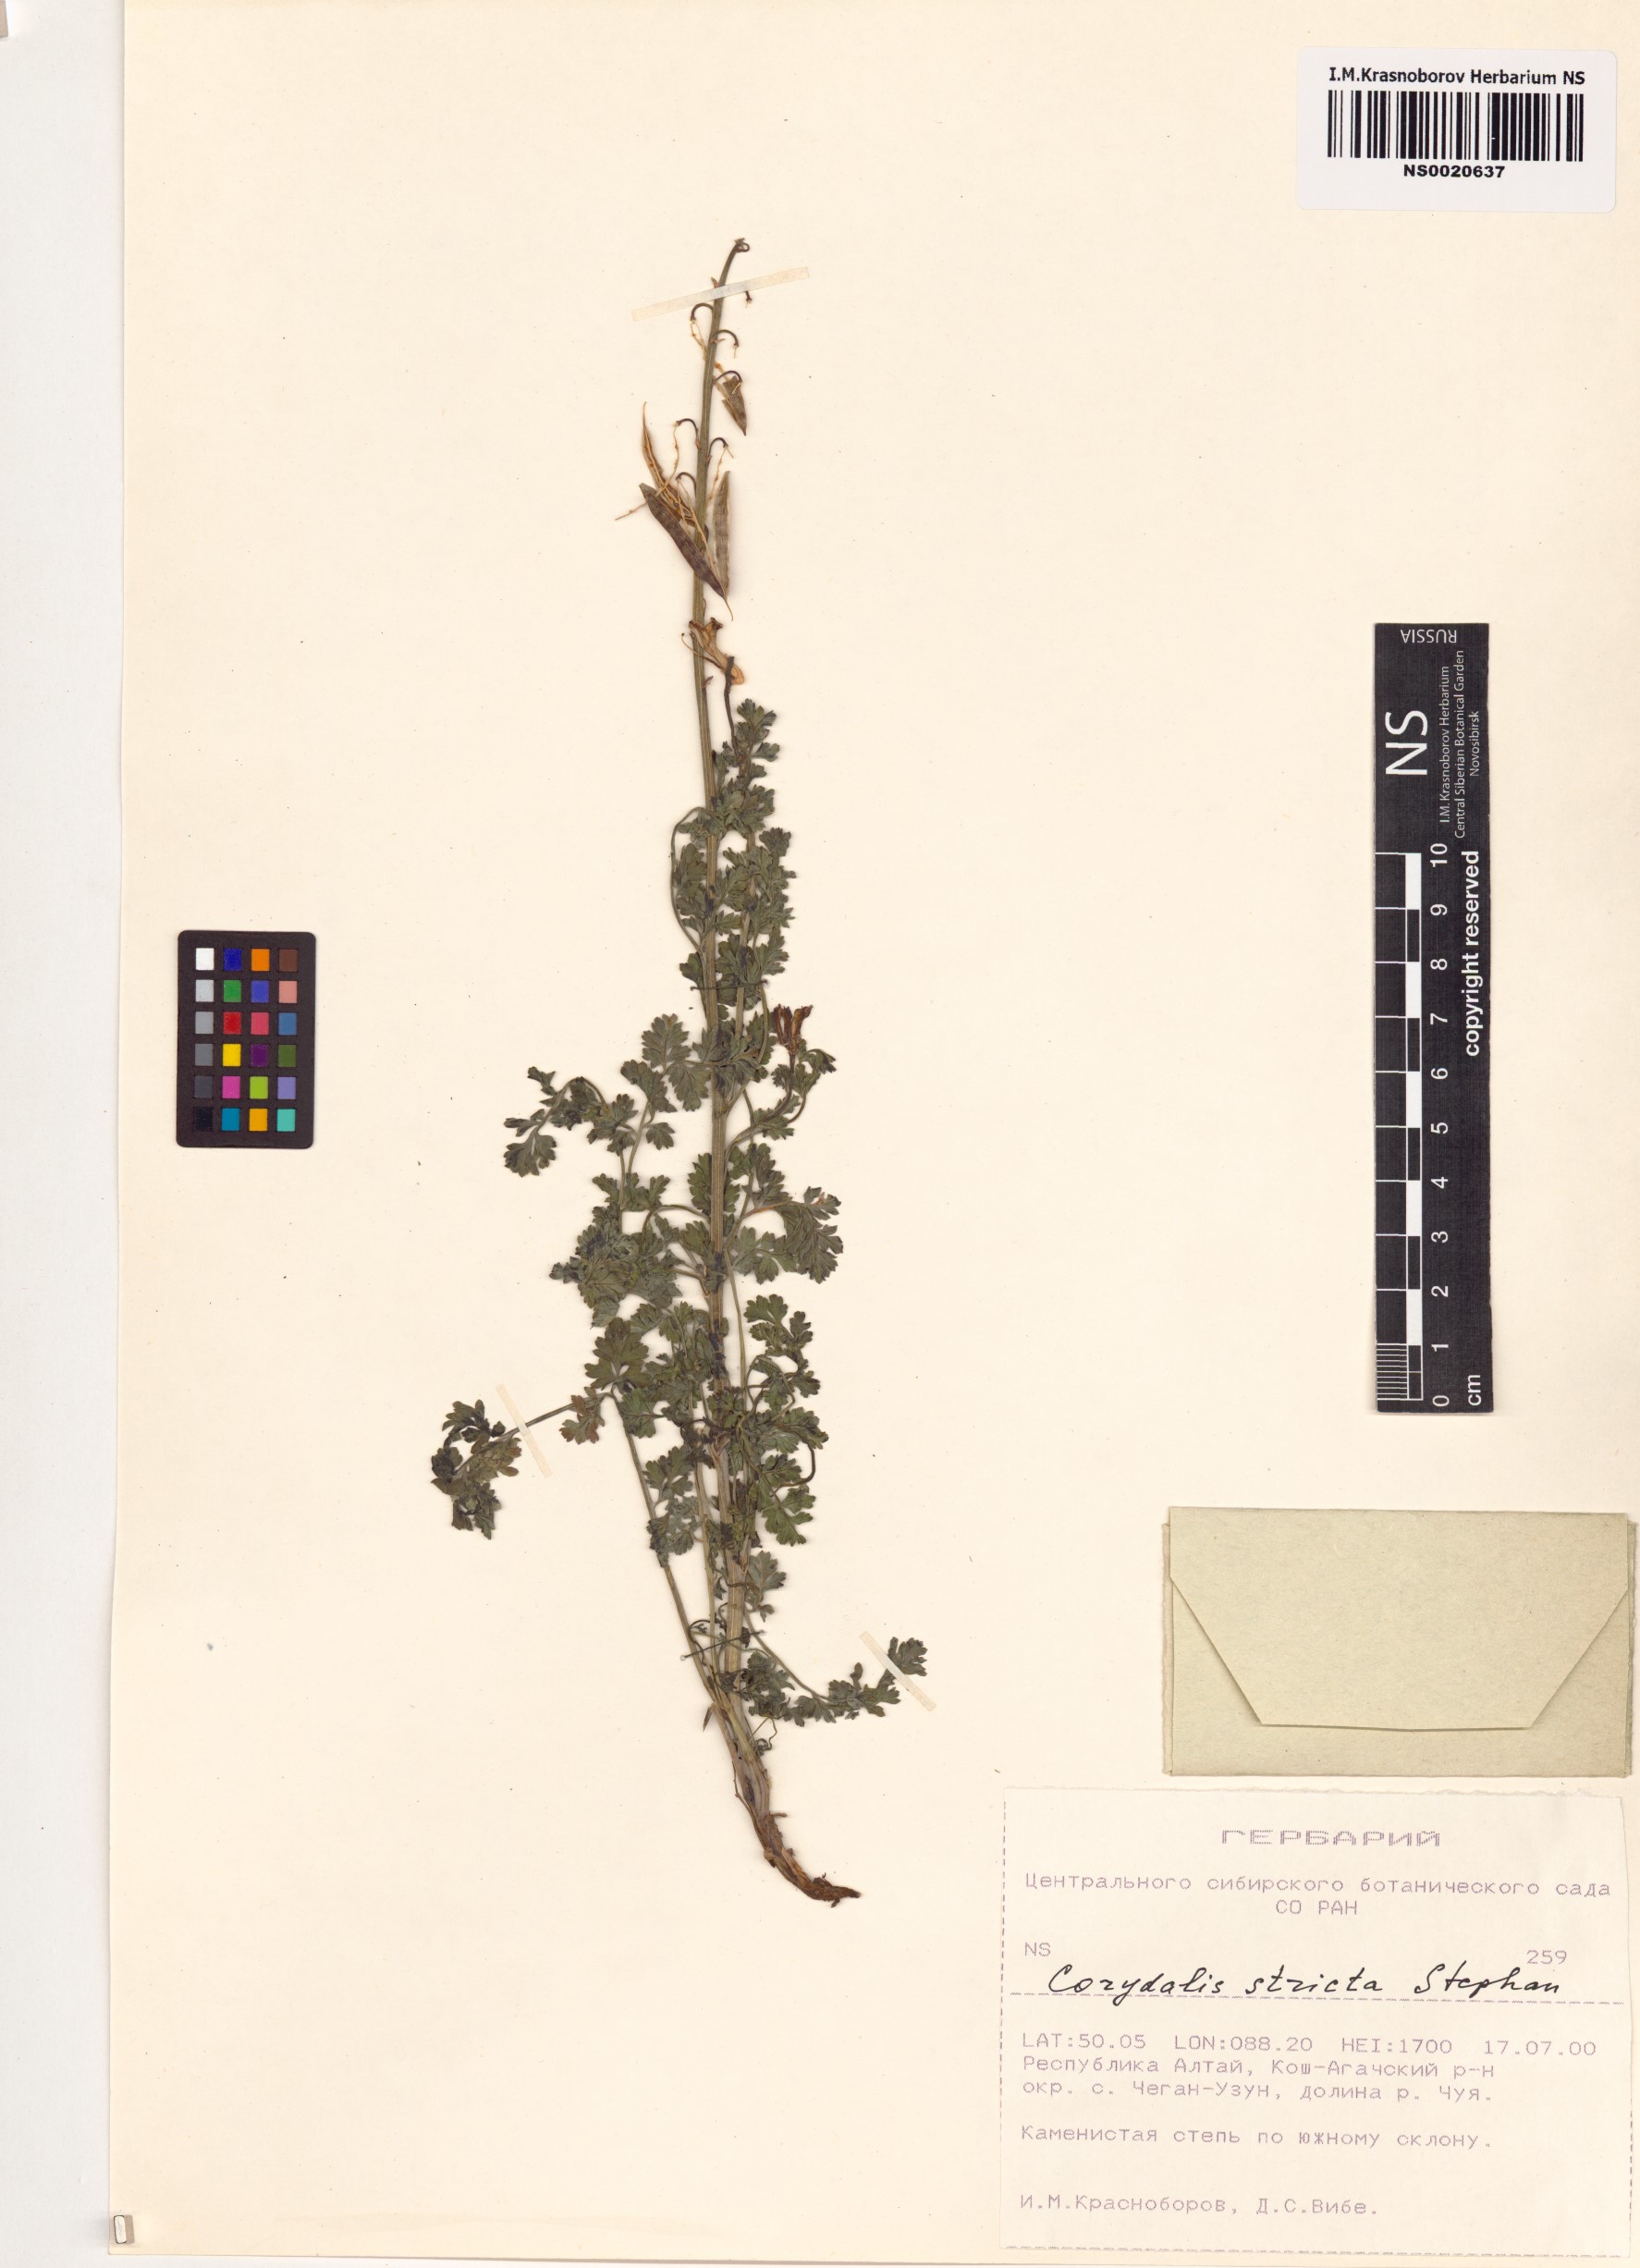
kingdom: Plantae
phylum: Tracheophyta
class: Magnoliopsida
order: Ranunculales
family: Papaveraceae
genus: Corydalis
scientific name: Corydalis stricta
